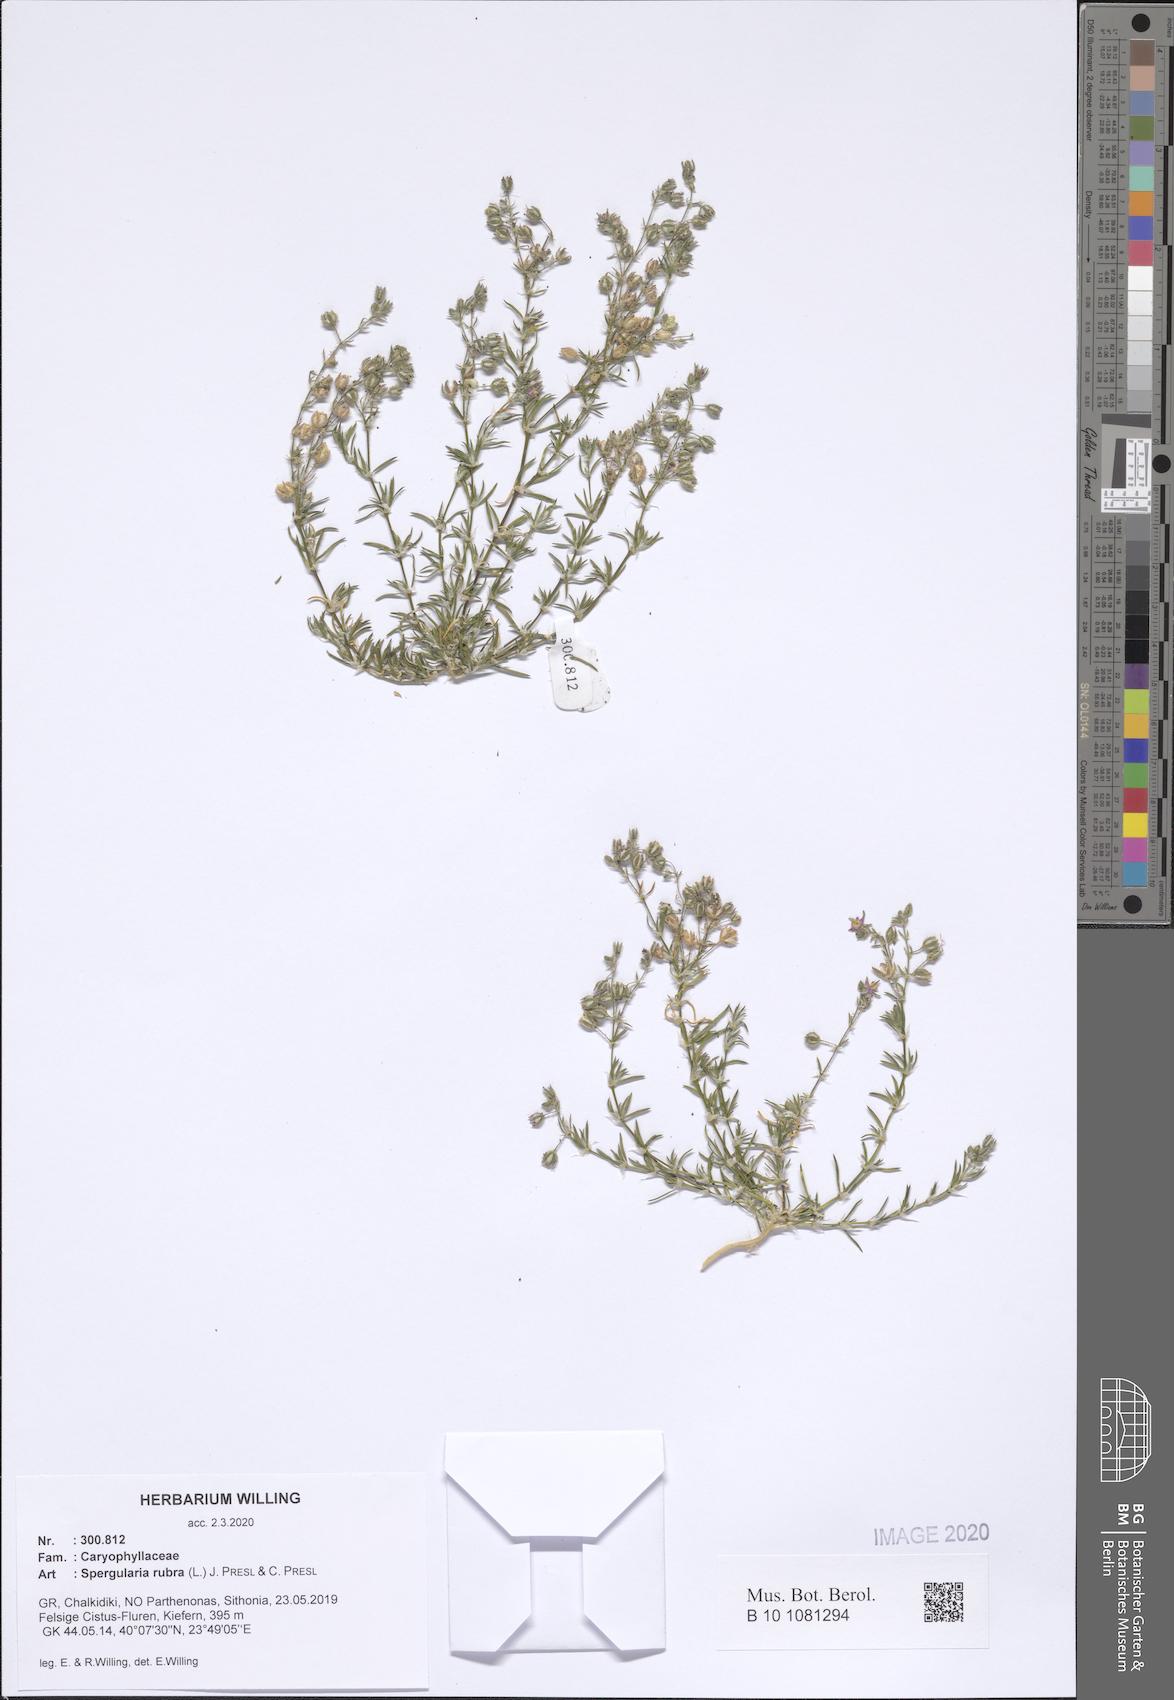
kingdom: Plantae
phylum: Tracheophyta
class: Magnoliopsida
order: Caryophyllales
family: Caryophyllaceae
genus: Spergularia
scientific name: Spergularia rubra
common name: Red sand-spurrey
